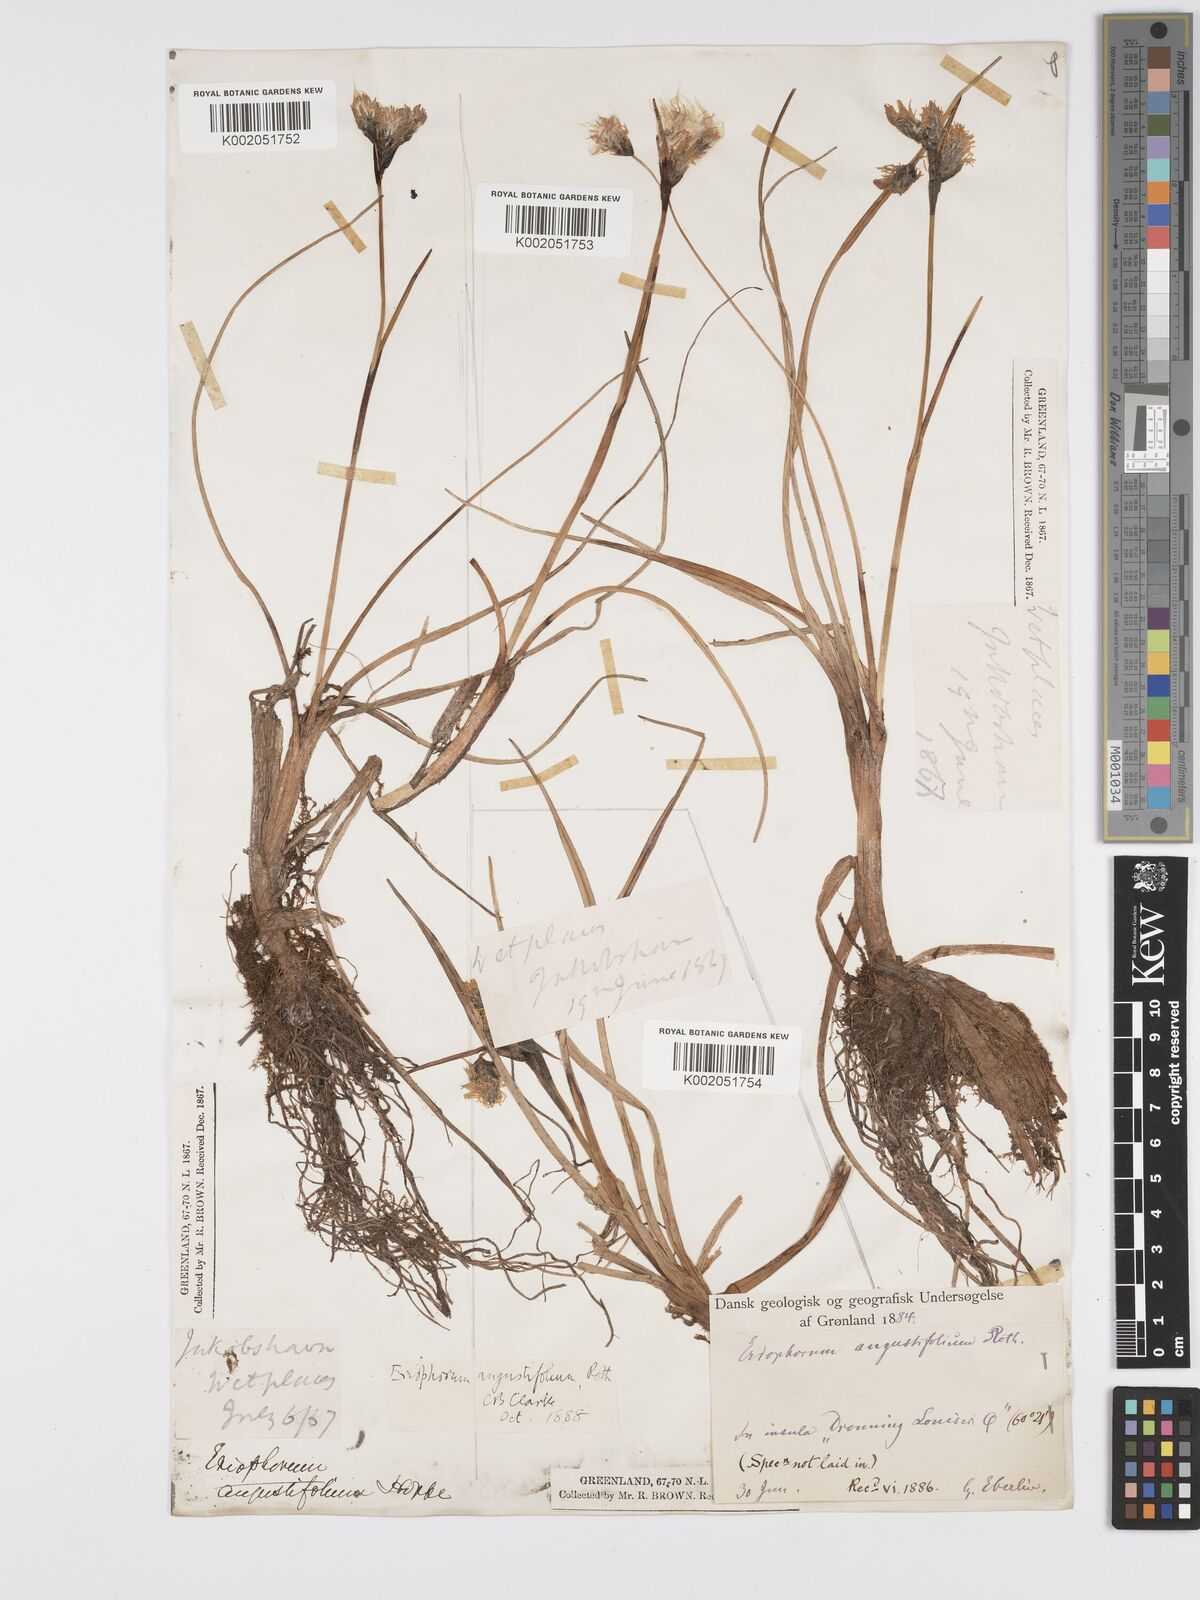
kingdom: Plantae
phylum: Tracheophyta
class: Liliopsida
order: Poales
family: Cyperaceae
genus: Eriophorum
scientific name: Eriophorum angustifolium
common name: Common cottongrass
